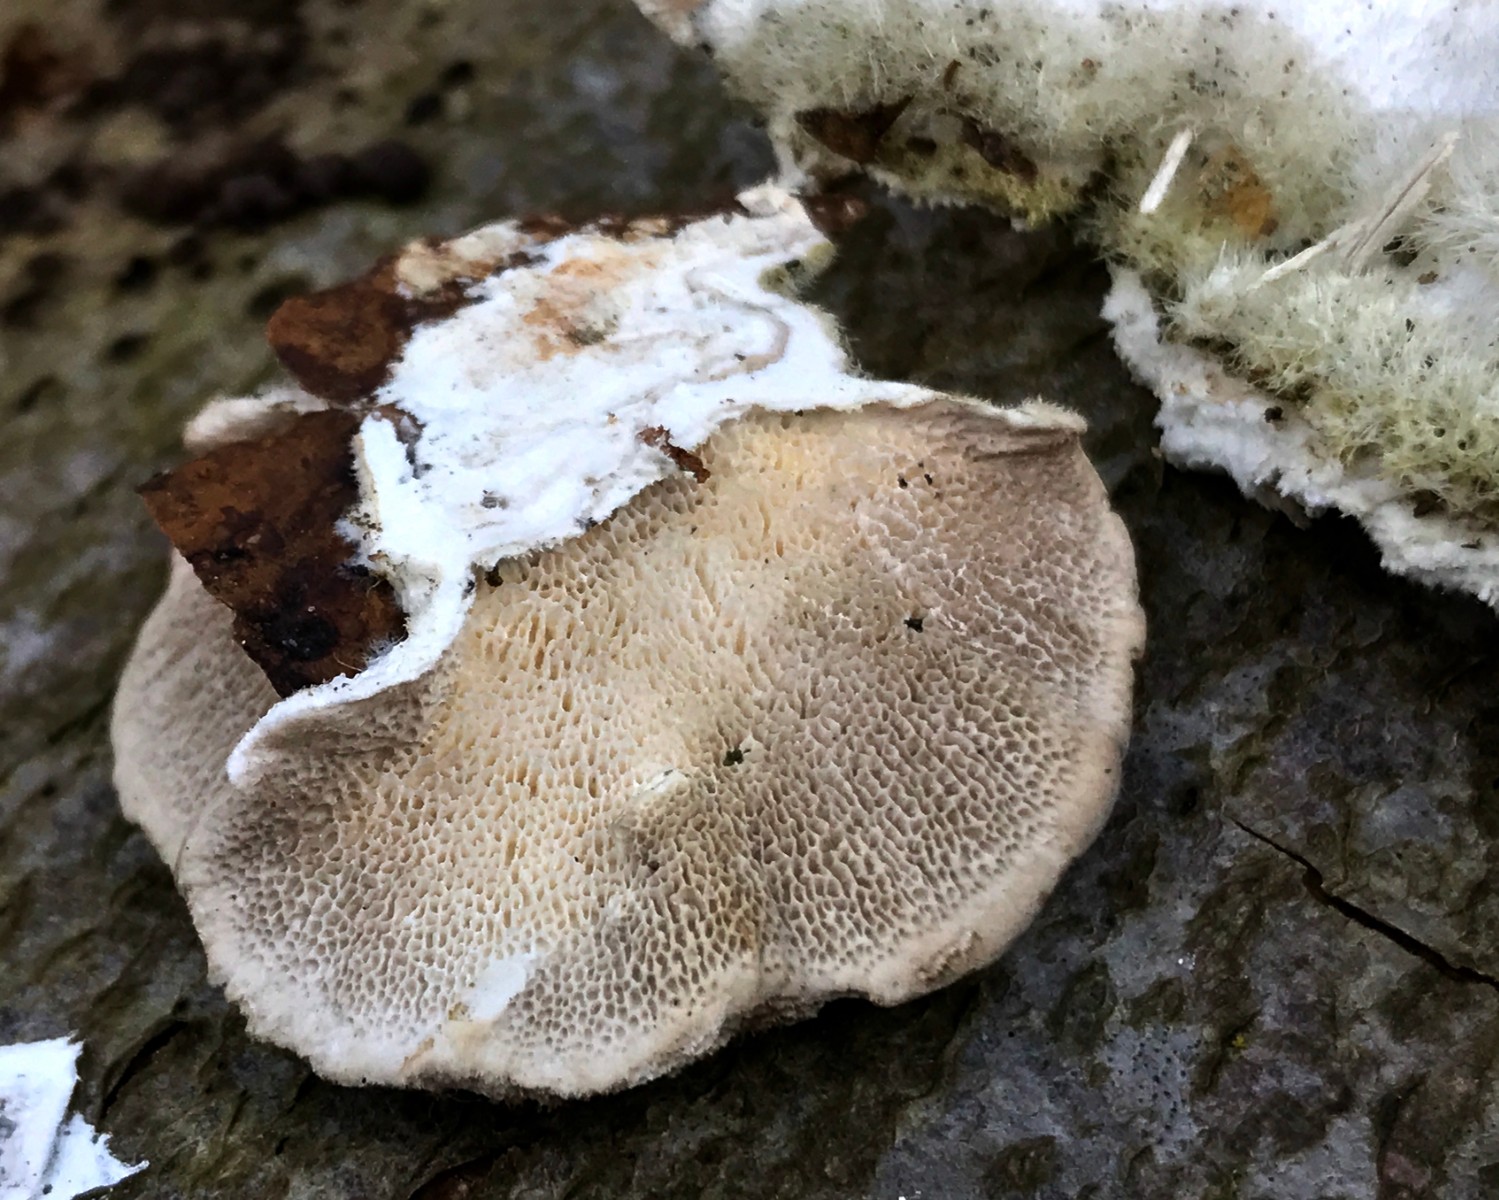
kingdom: Fungi
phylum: Basidiomycota
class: Agaricomycetes
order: Polyporales
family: Polyporaceae
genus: Trametes
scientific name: Trametes hirsuta
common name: håret læderporesvamp
